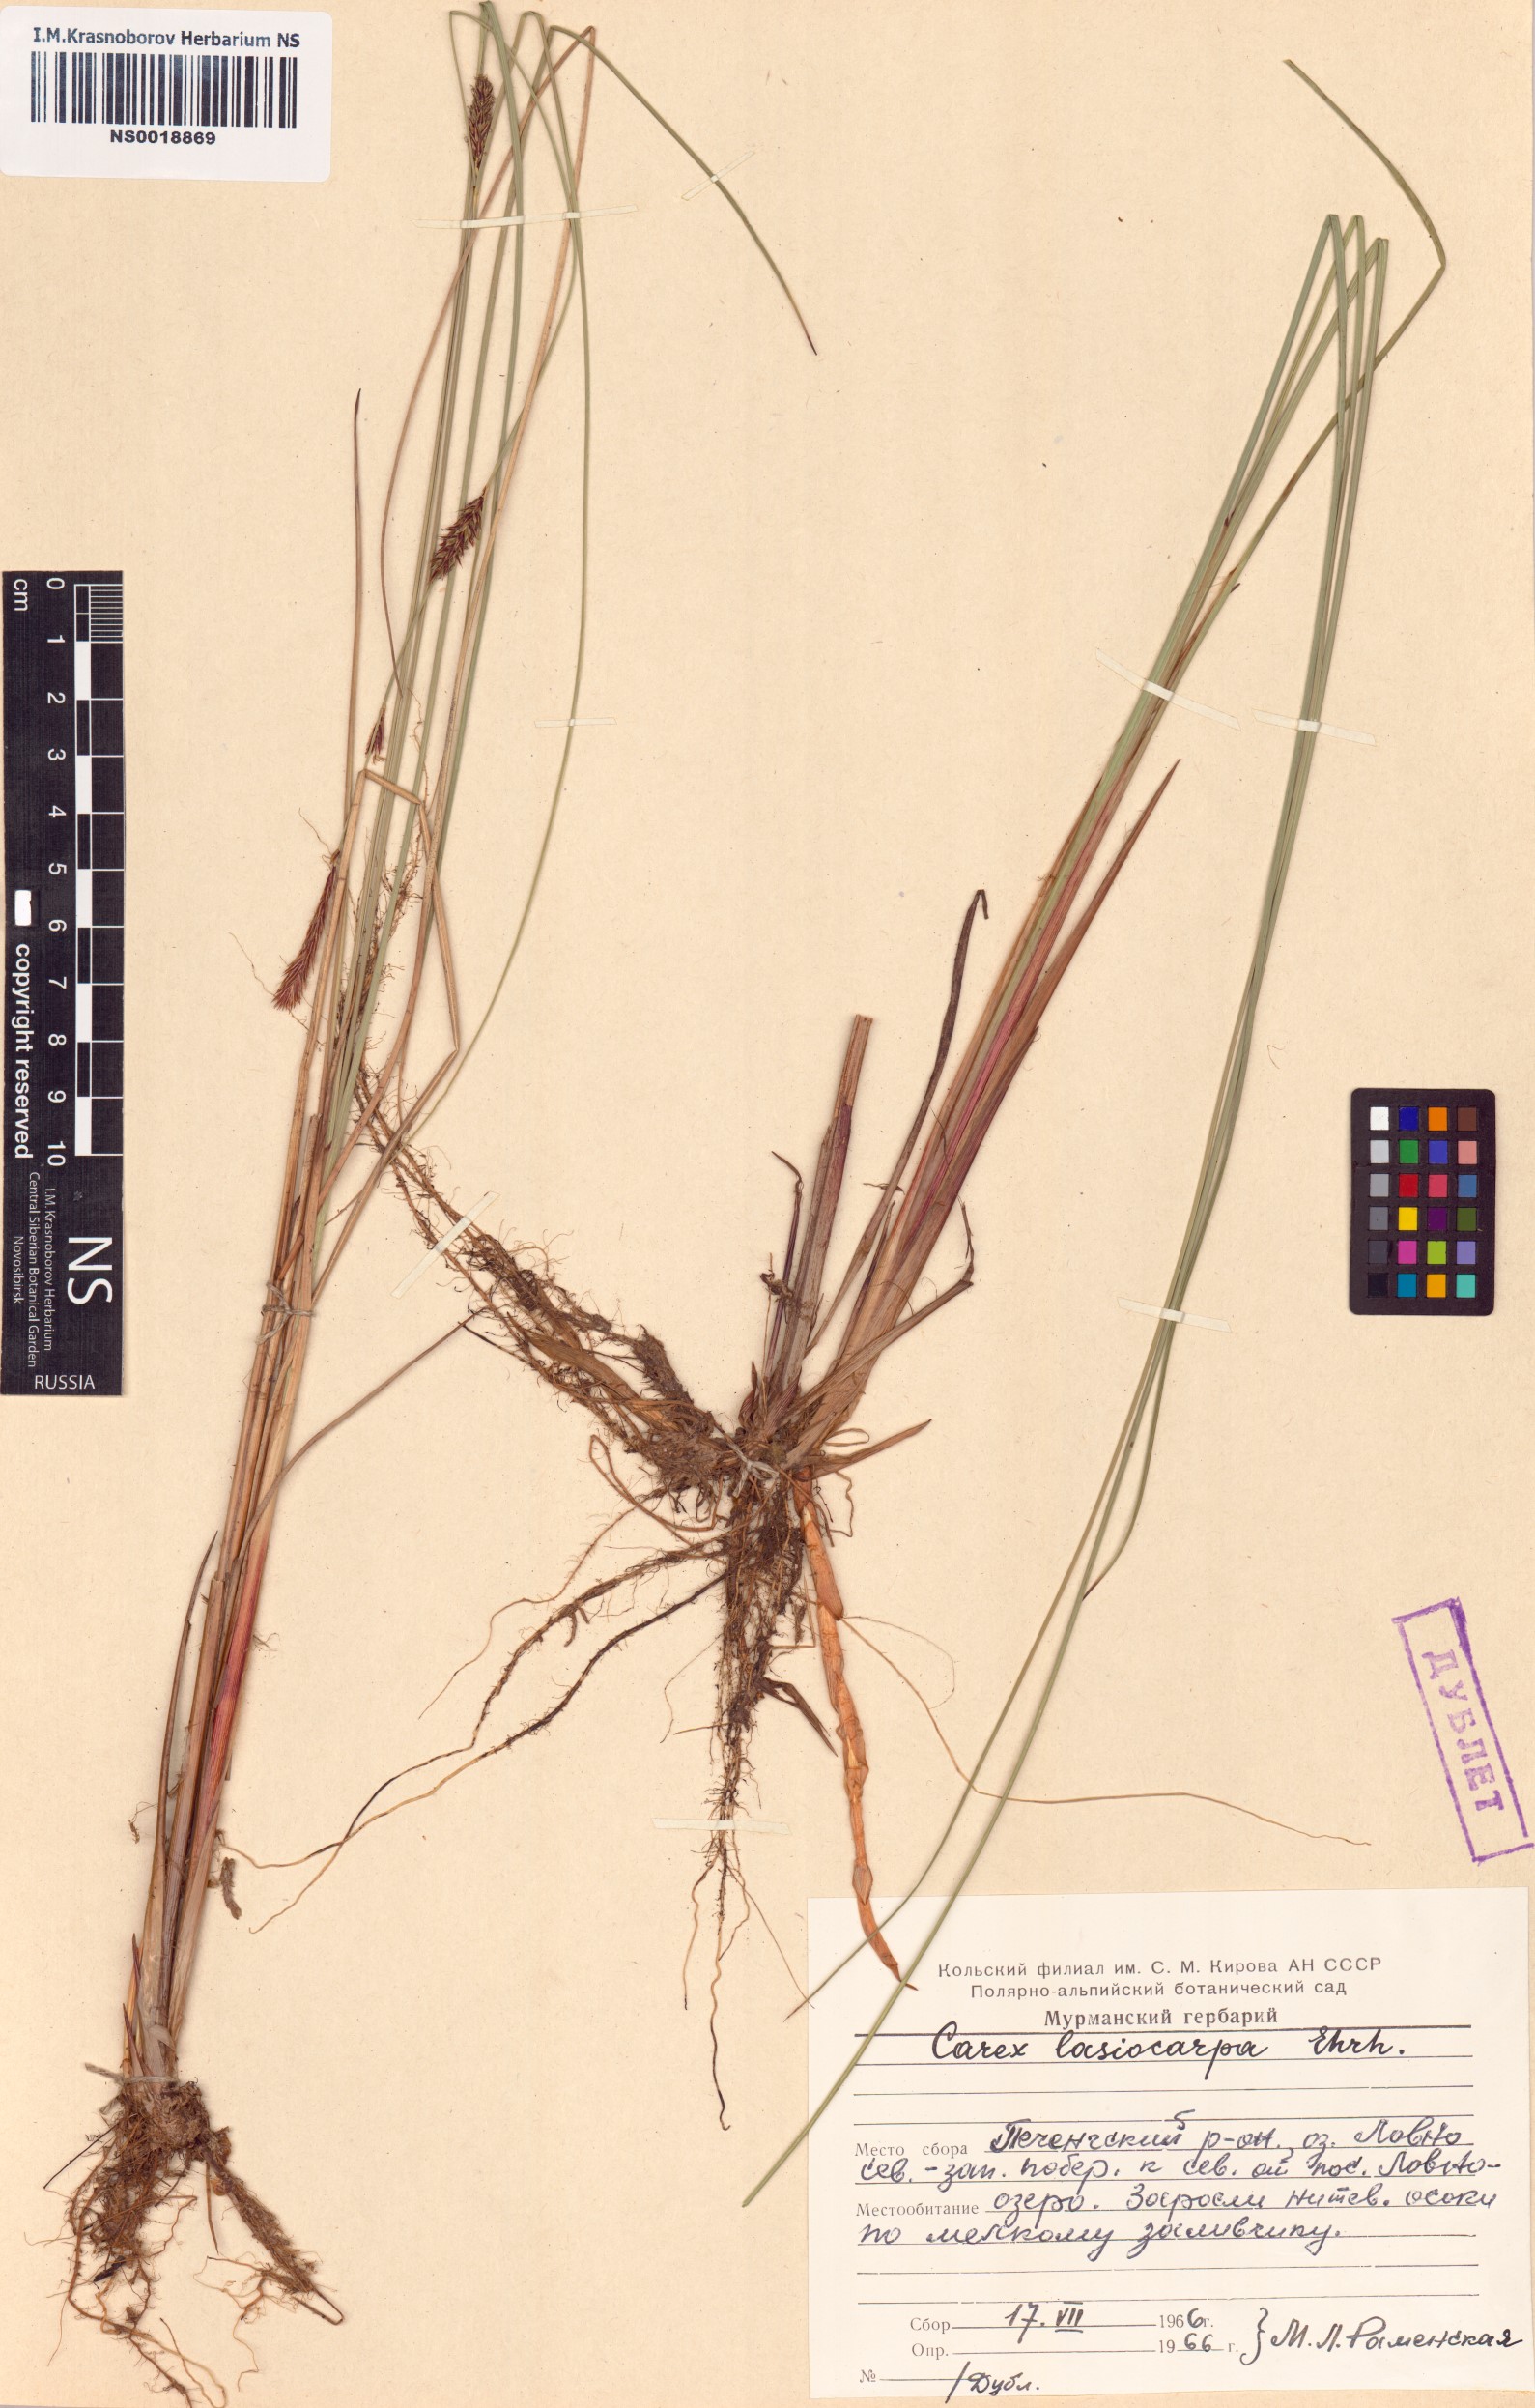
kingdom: Plantae
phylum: Tracheophyta
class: Liliopsida
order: Poales
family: Cyperaceae
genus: Carex
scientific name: Carex lasiocarpa
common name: Slender sedge
